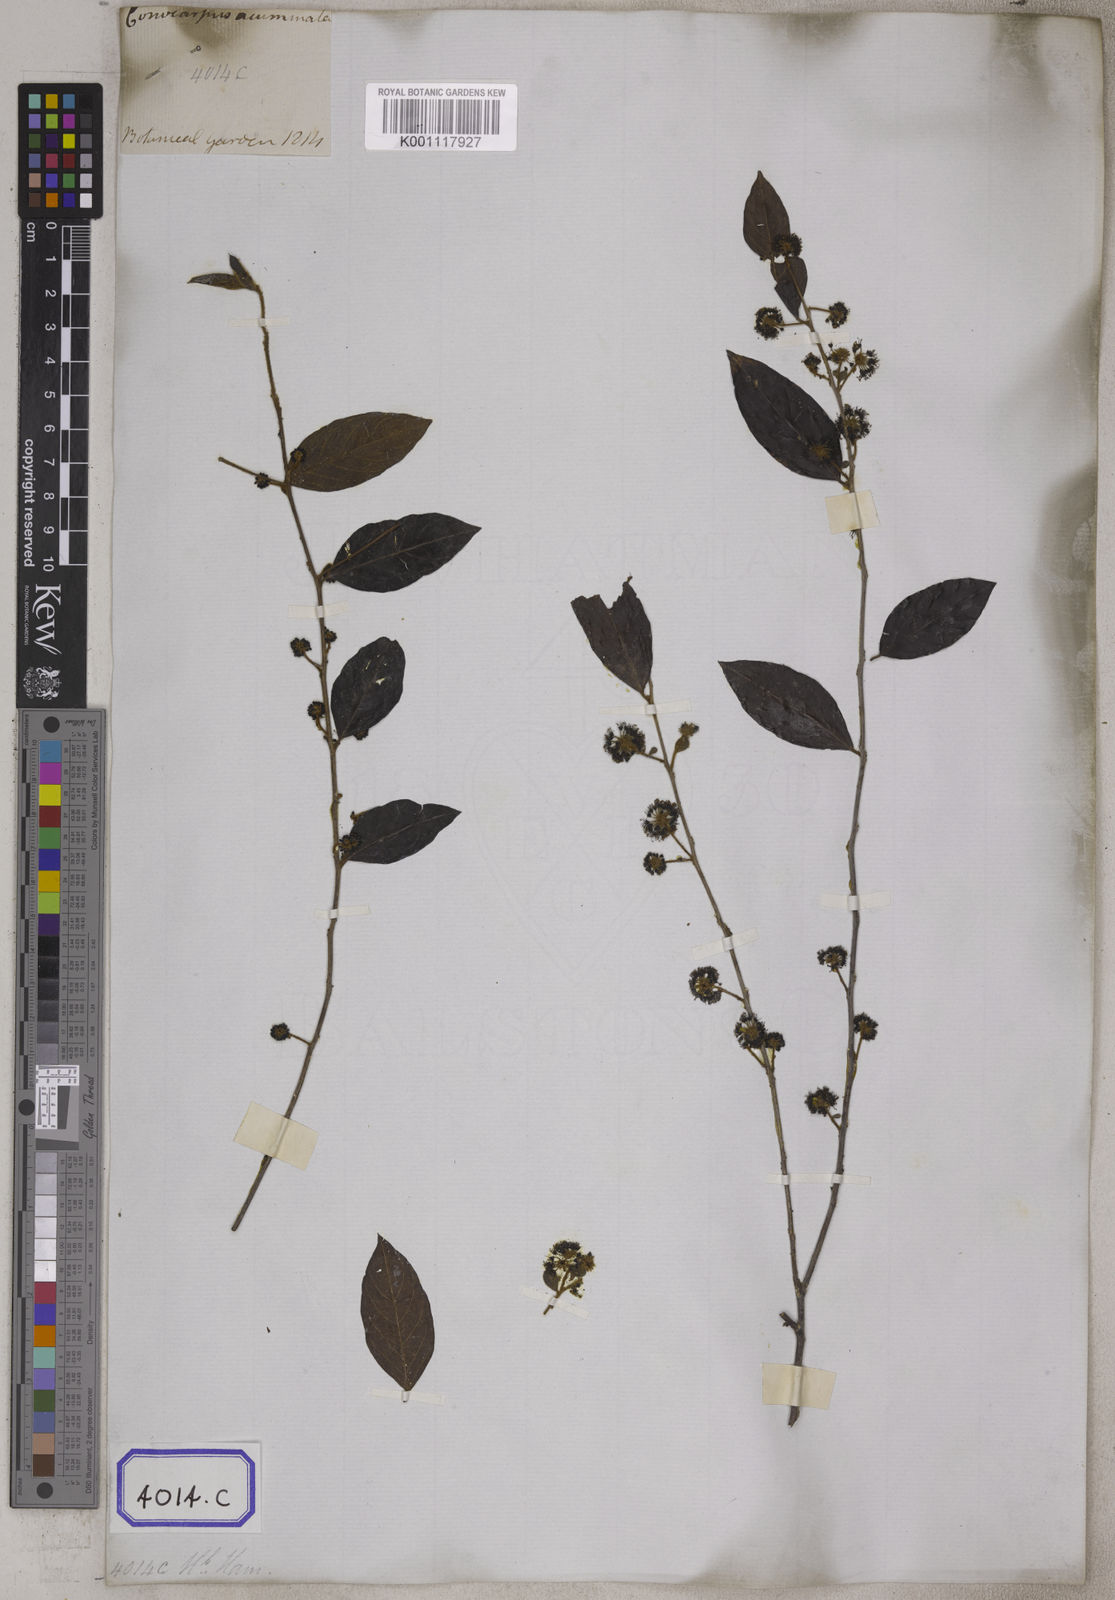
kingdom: Plantae
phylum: Tracheophyta
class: Magnoliopsida
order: Myrtales
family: Combretaceae
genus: Anogeissus
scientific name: Anogeissus
